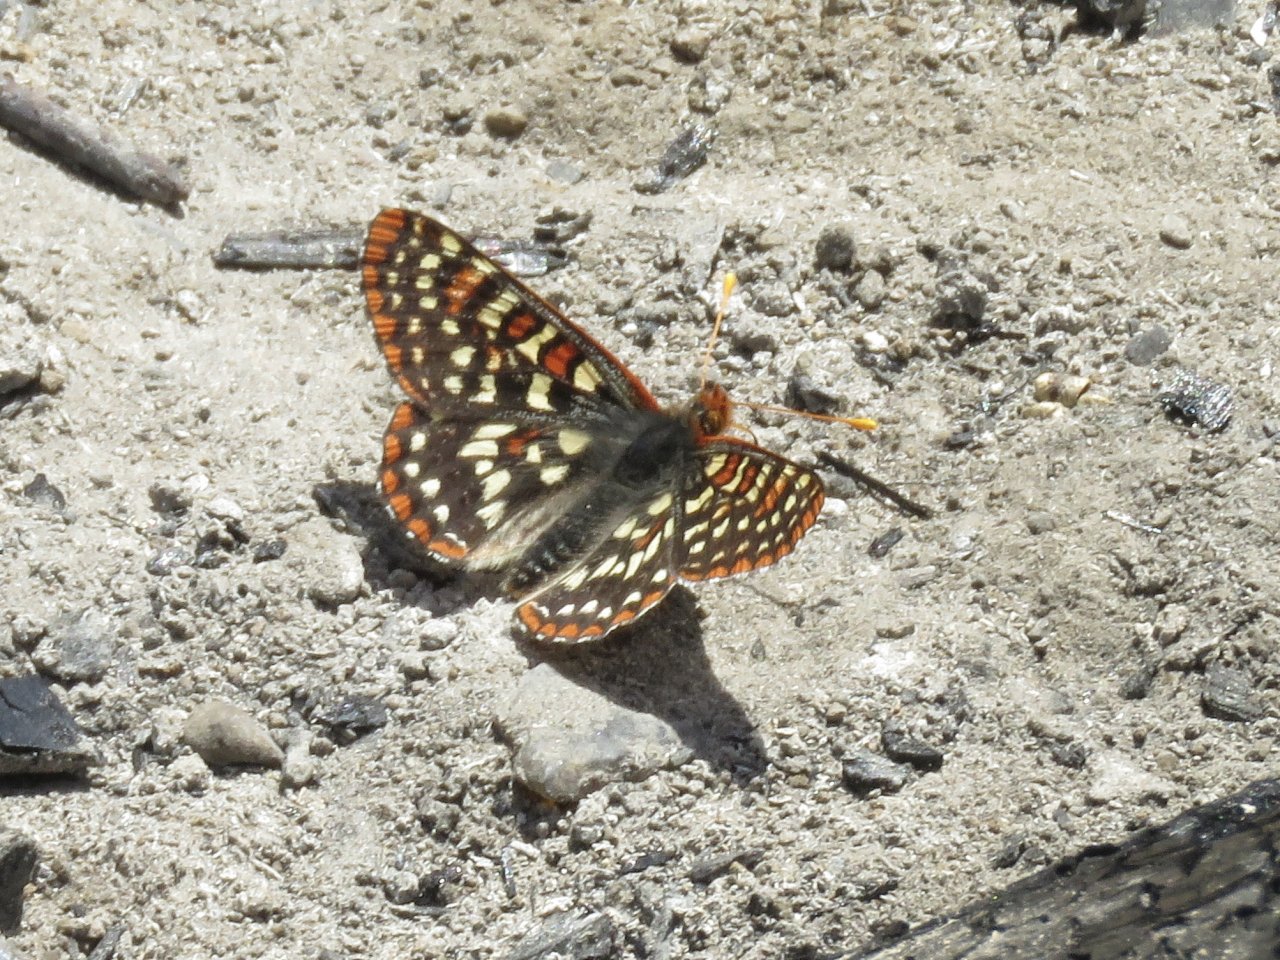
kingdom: Animalia
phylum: Arthropoda
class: Insecta
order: Lepidoptera
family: Nymphalidae
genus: Occidryas
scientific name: Occidryas colon
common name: Snowberry Checkerspot
